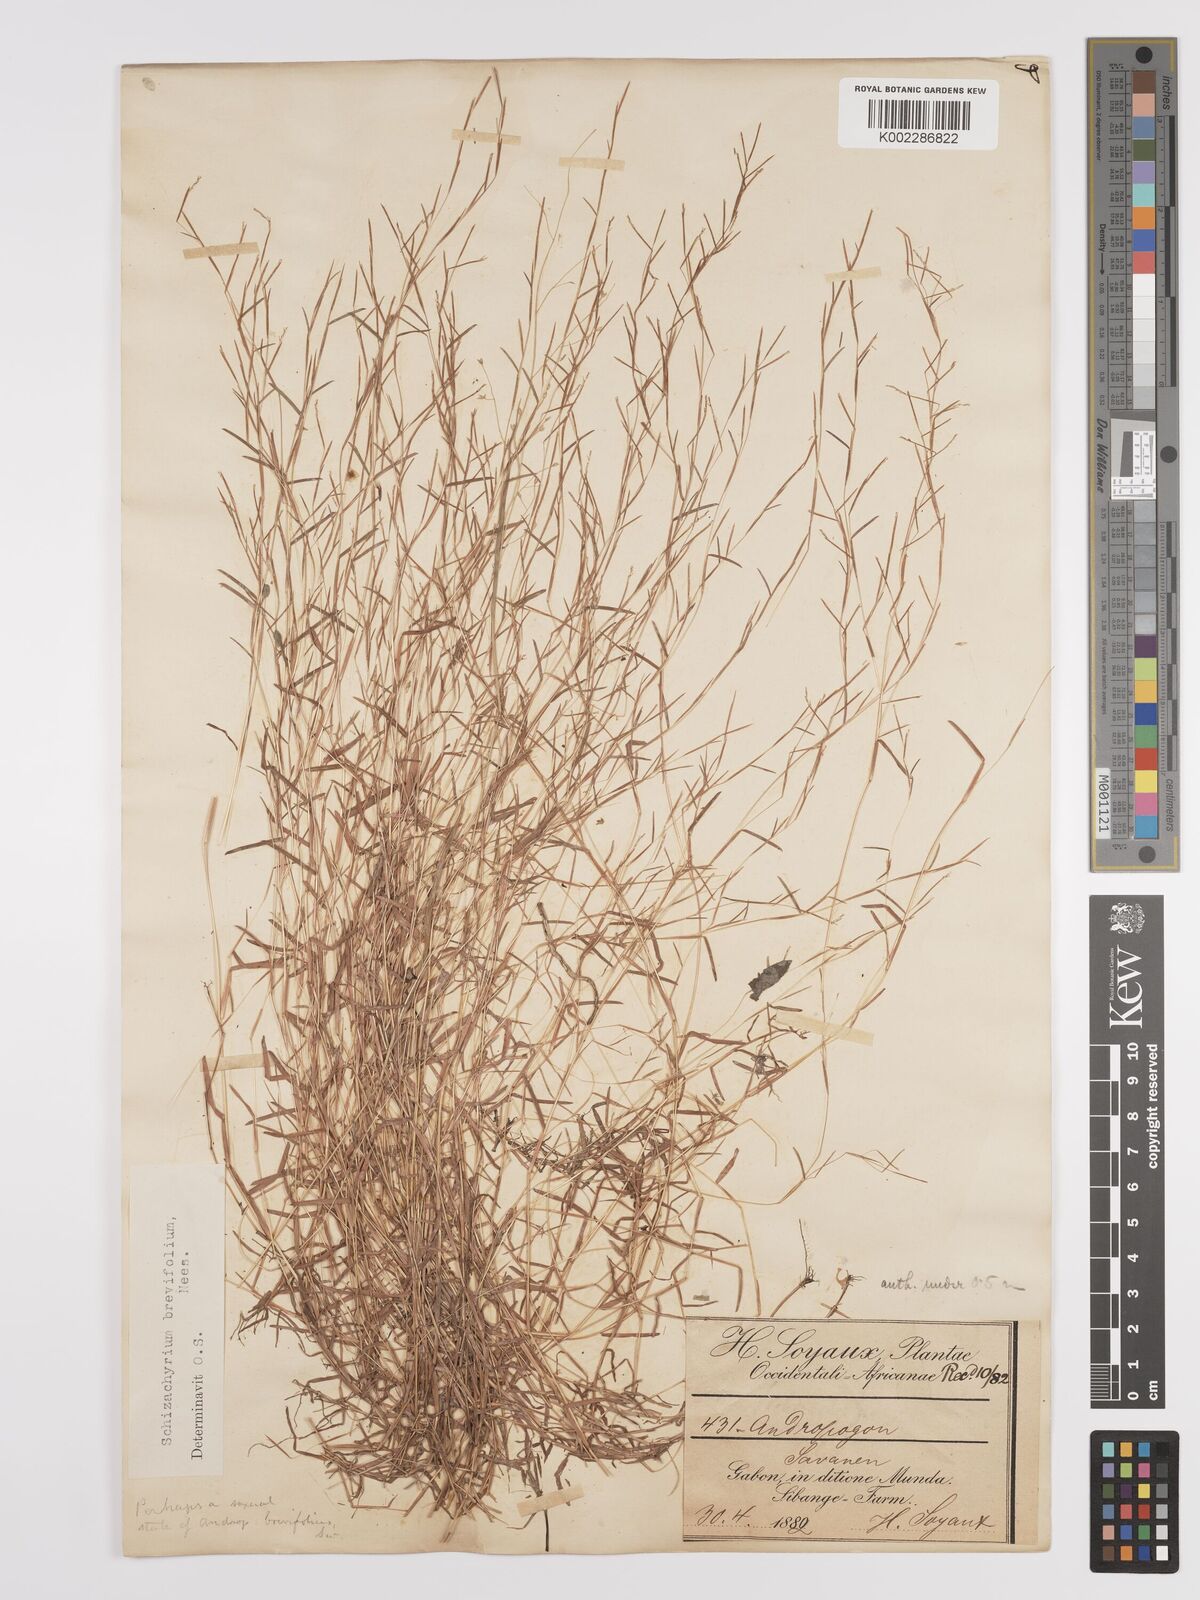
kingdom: Plantae
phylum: Tracheophyta
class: Liliopsida
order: Poales
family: Poaceae
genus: Schizachyrium
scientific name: Schizachyrium brevifolium
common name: Serillo dulce
